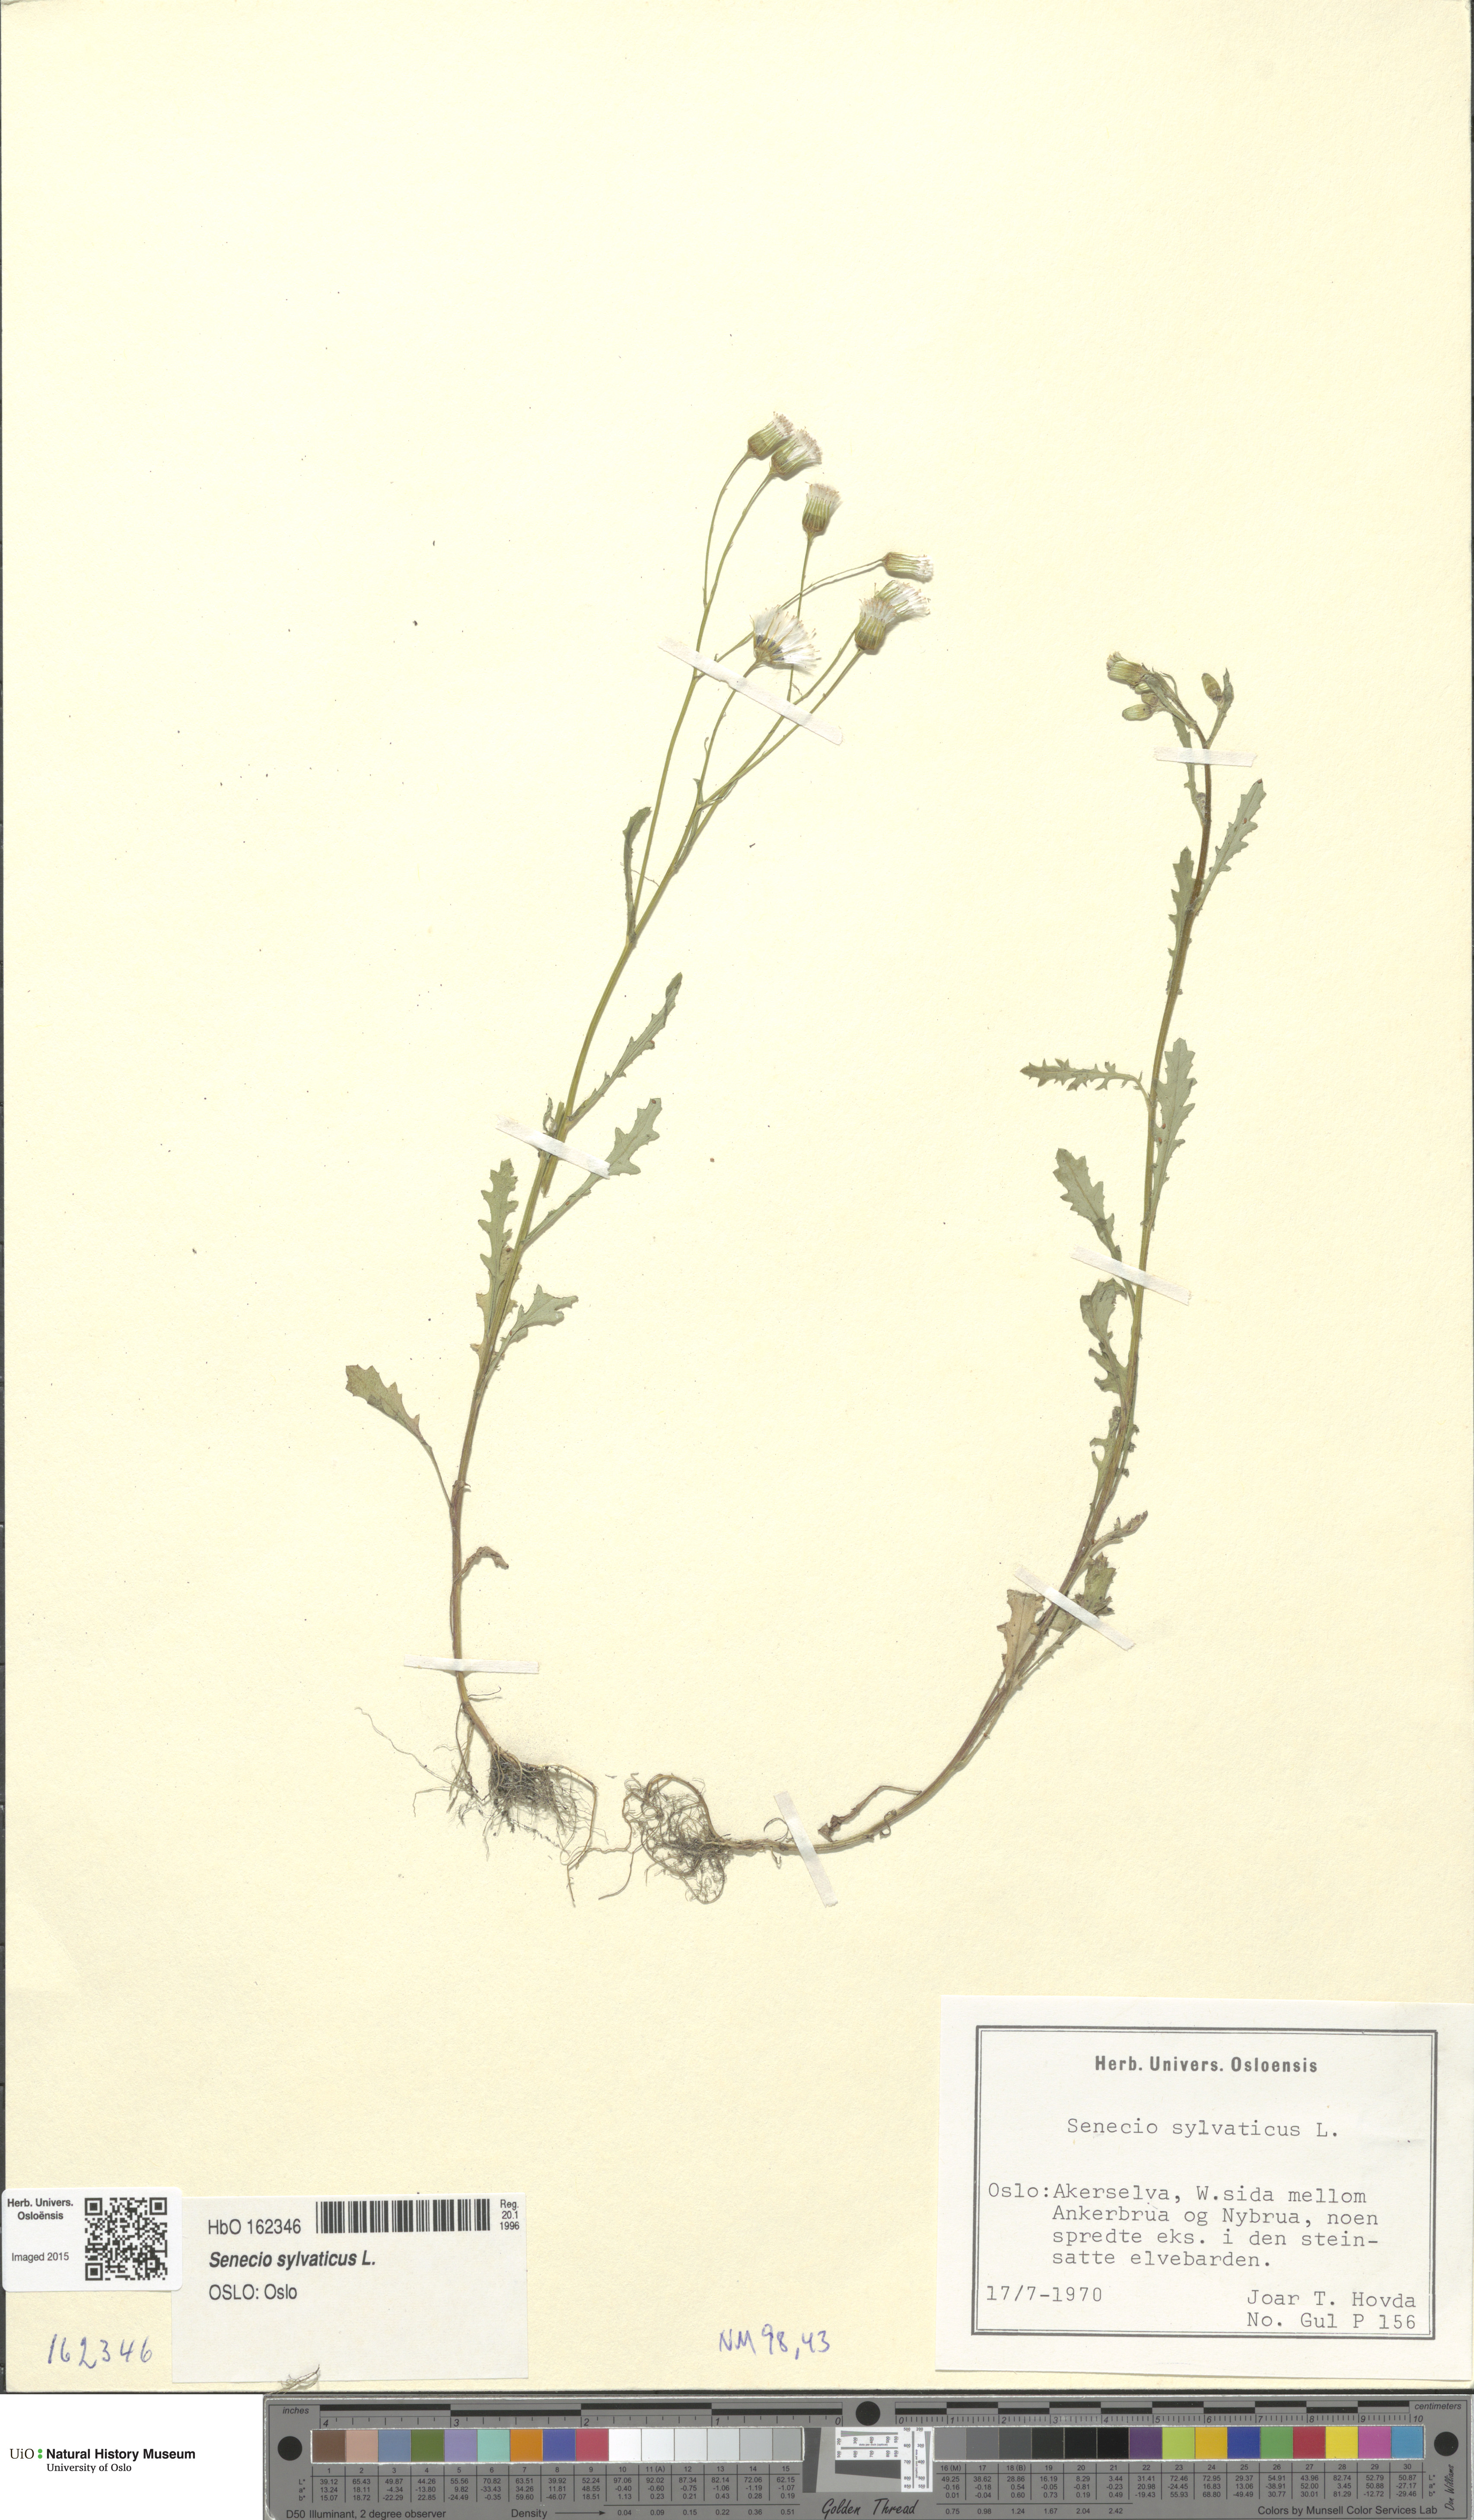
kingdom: Plantae
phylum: Tracheophyta
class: Magnoliopsida
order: Asterales
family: Asteraceae
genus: Senecio
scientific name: Senecio sylvaticus
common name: Woodland ragwort
